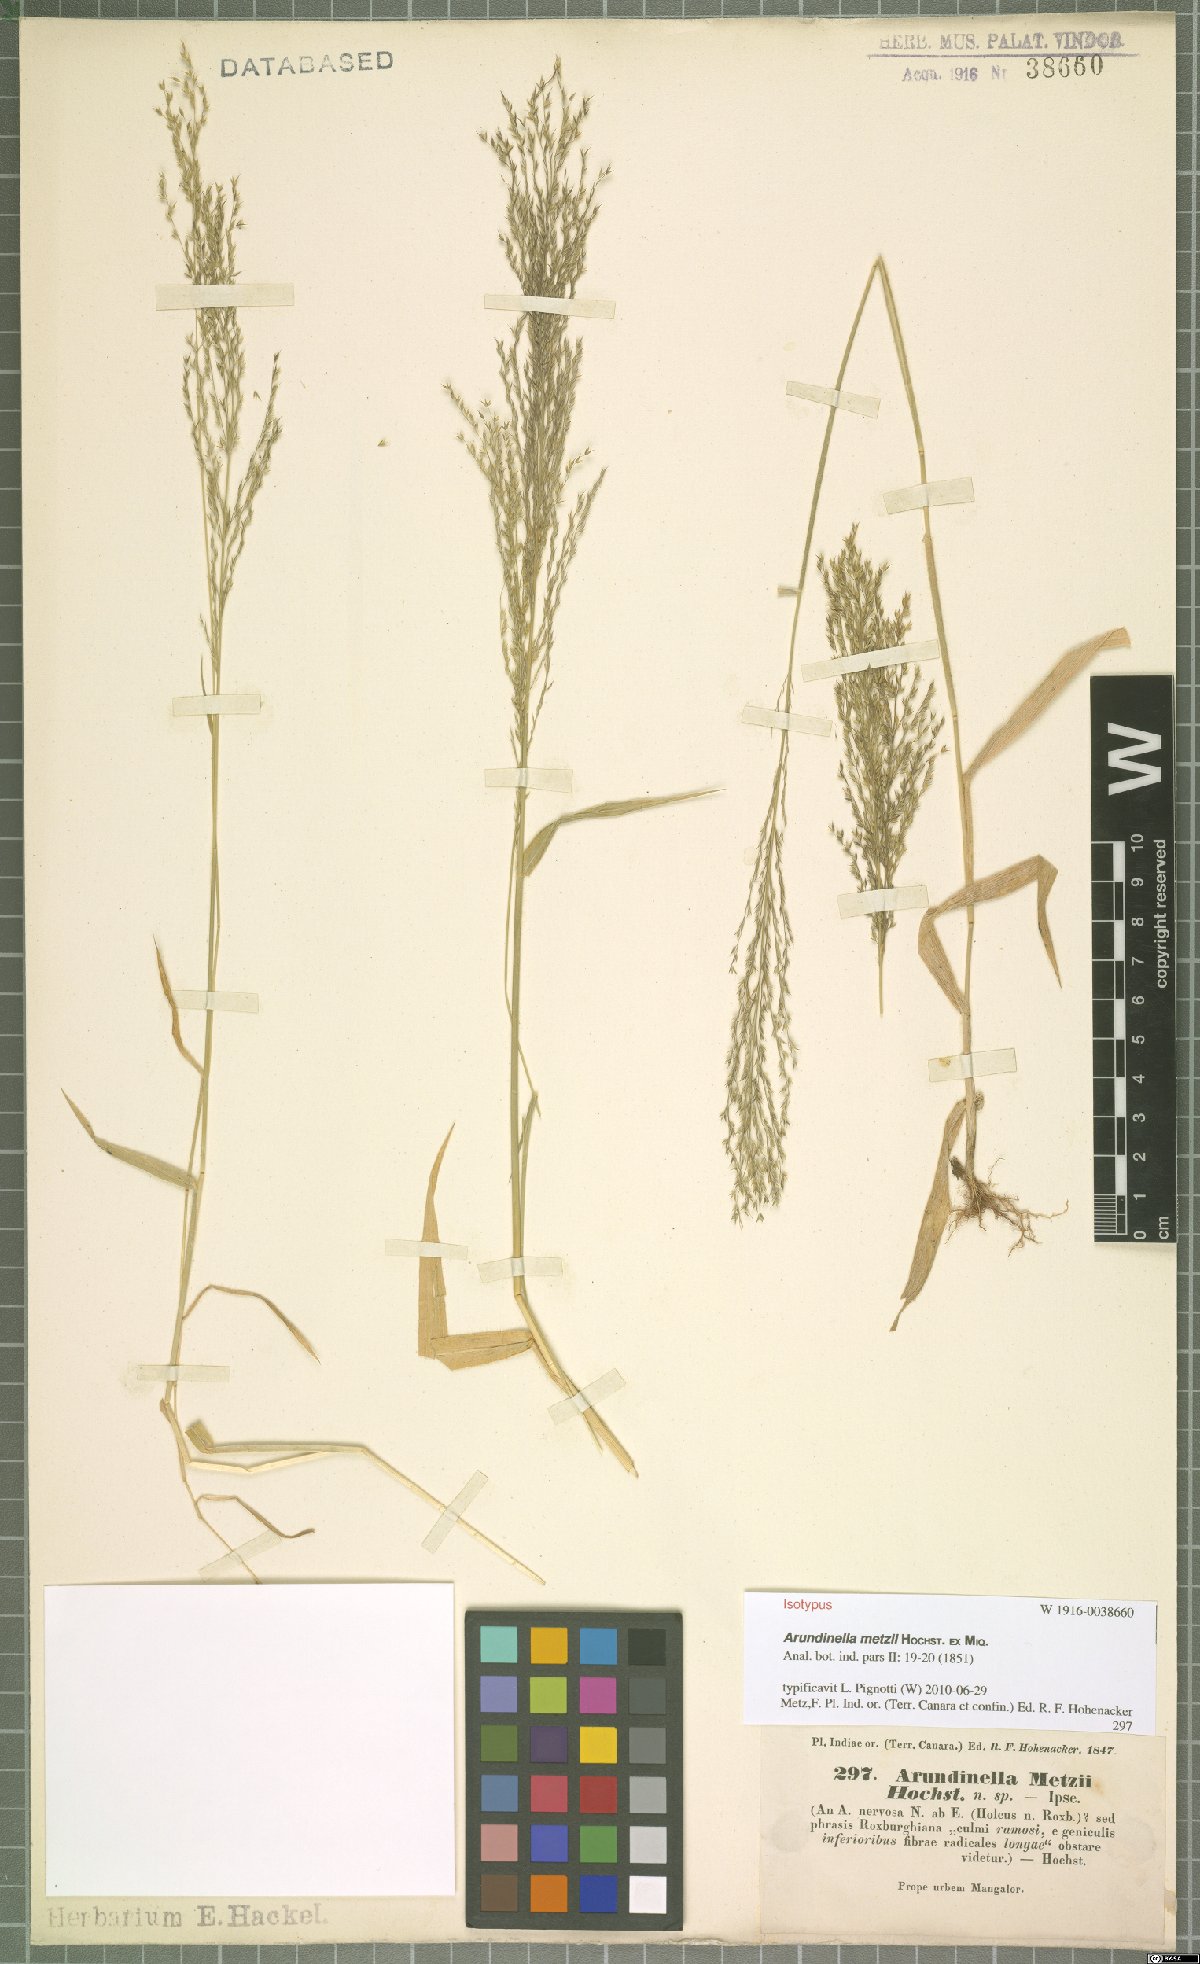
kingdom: Plantae
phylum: Tracheophyta
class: Liliopsida
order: Poales
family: Poaceae
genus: Arundinella
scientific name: Arundinella metzii
